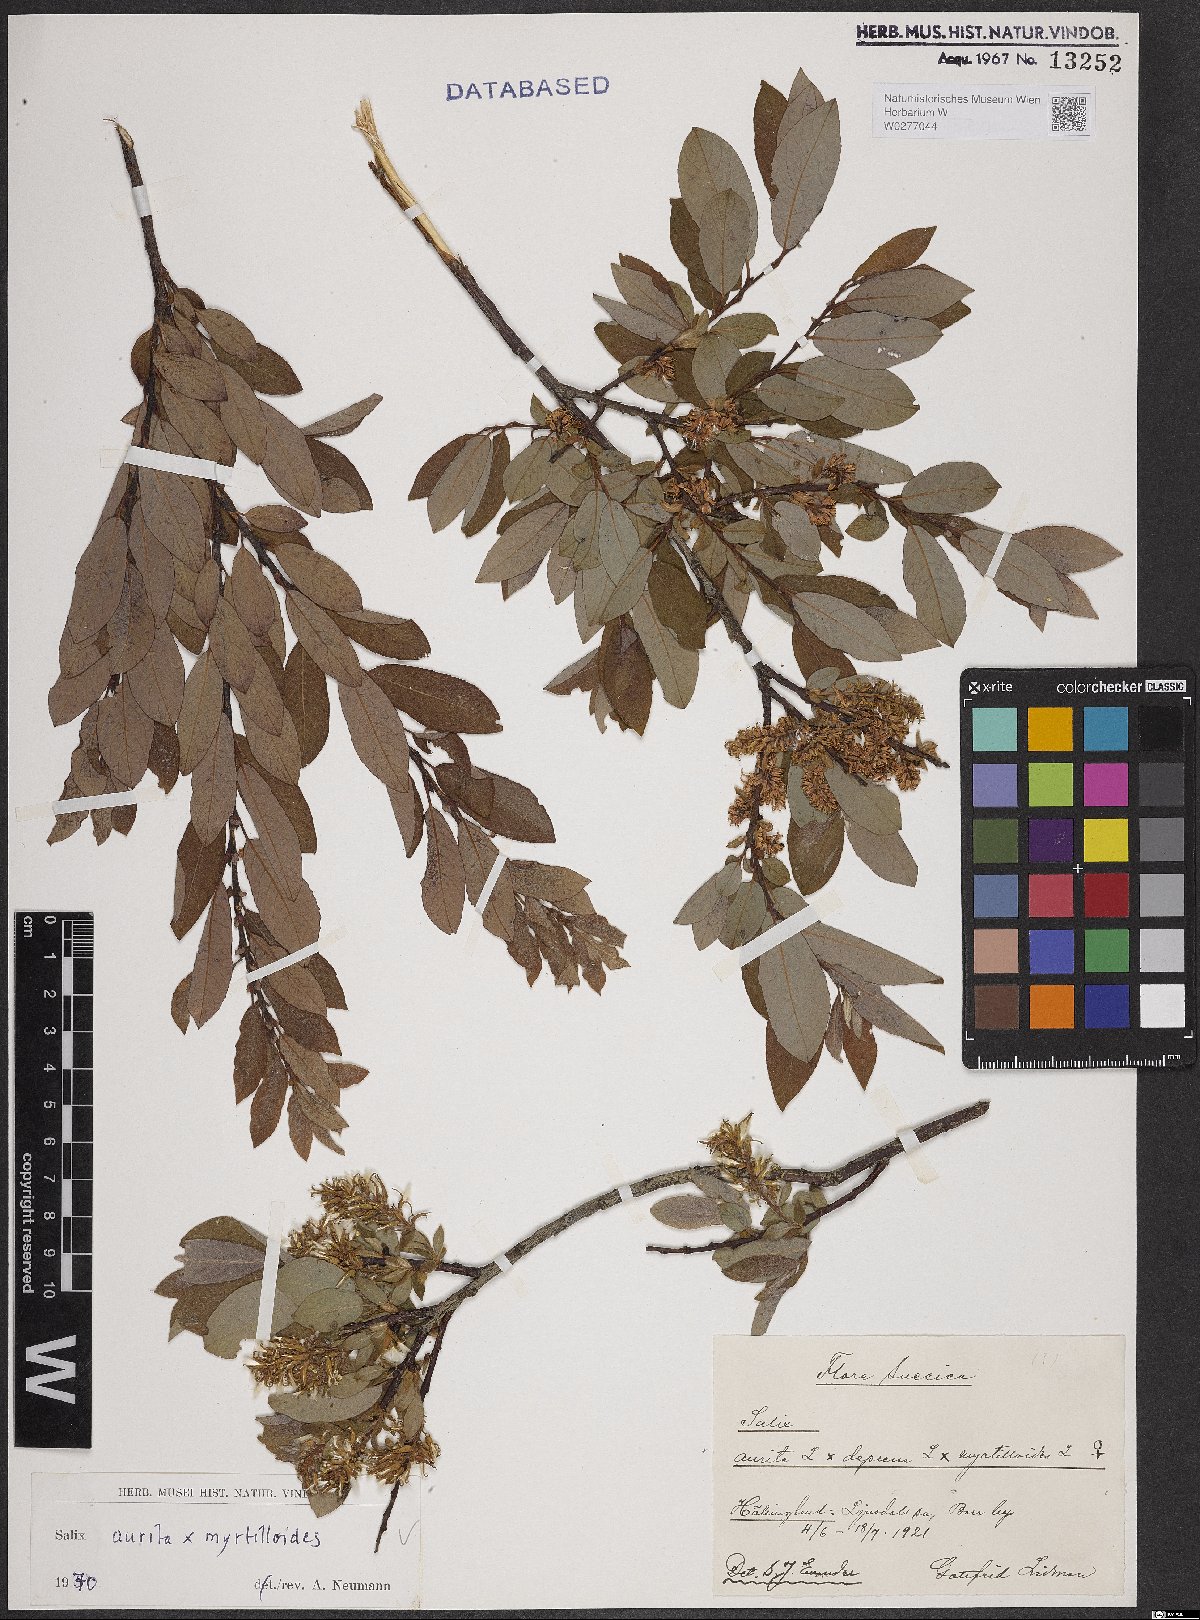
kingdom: Plantae
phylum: Tracheophyta
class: Magnoliopsida
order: Malpighiales
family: Salicaceae
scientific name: Salicaceae
